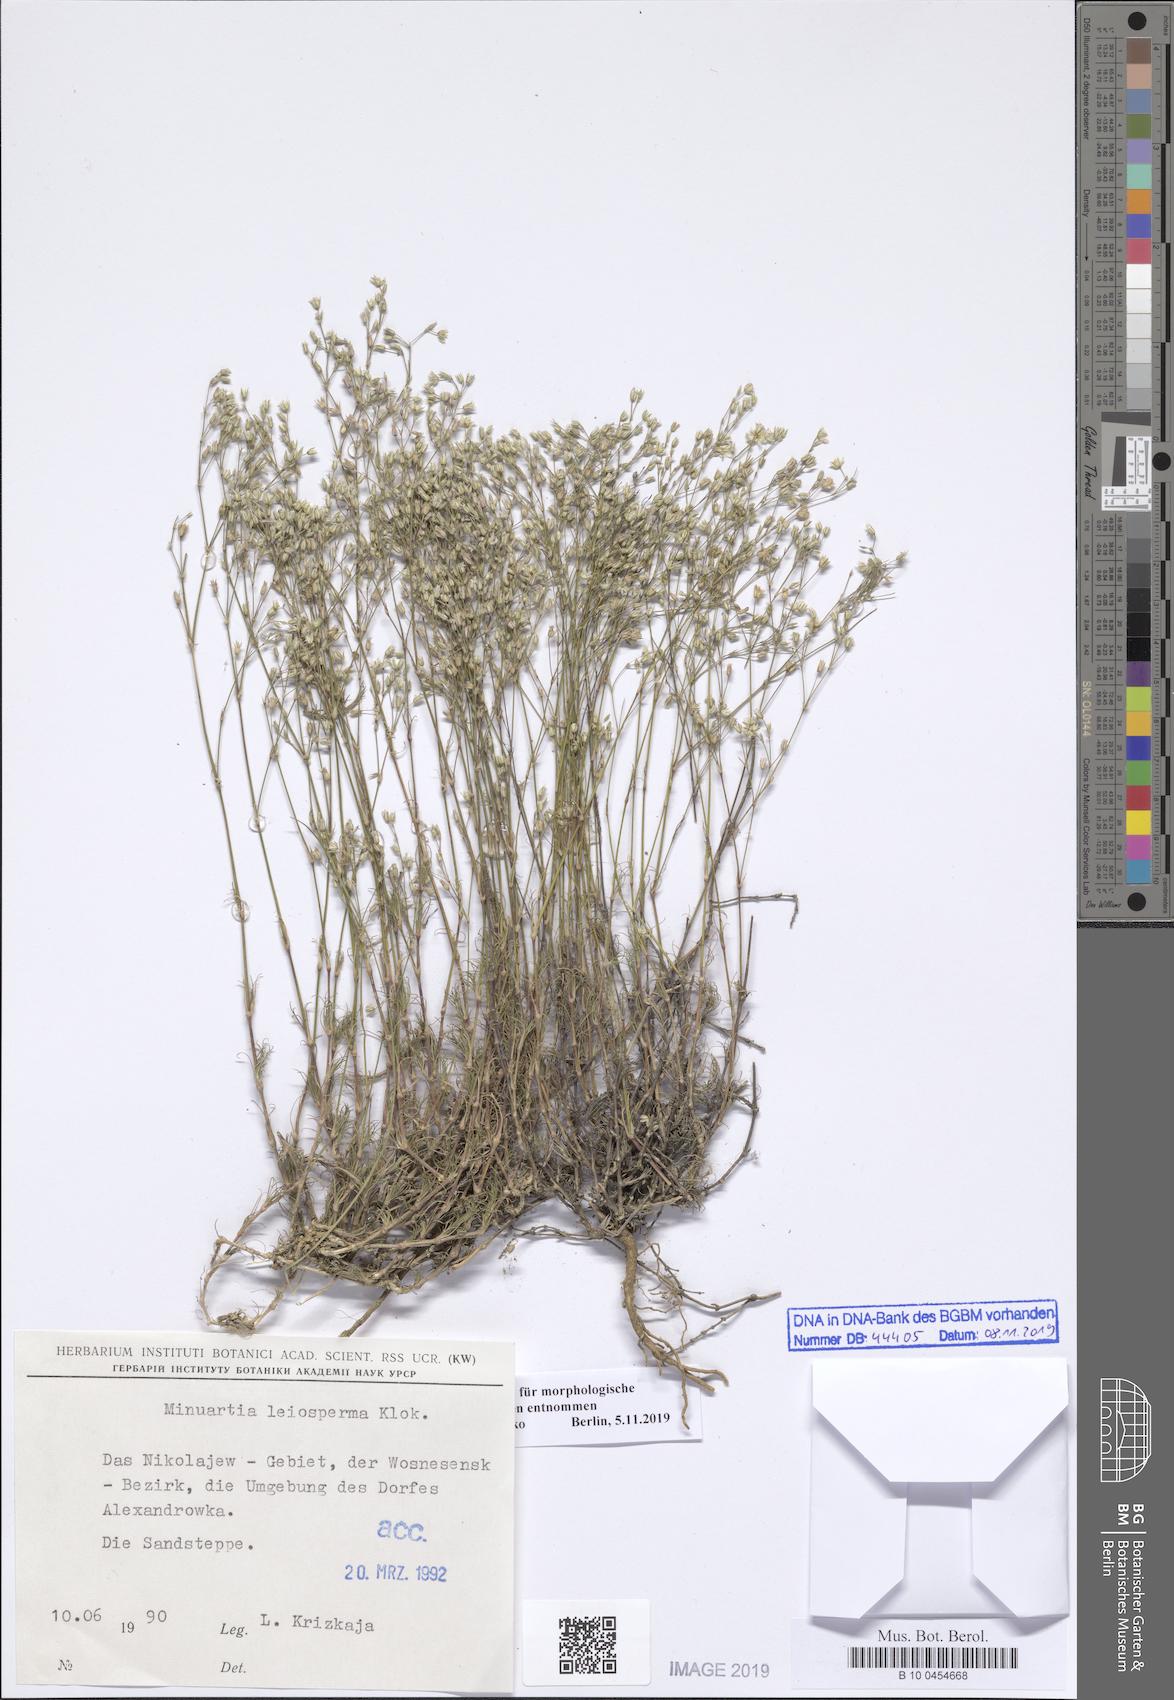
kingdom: Plantae
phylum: Tracheophyta
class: Magnoliopsida
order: Caryophyllales
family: Caryophyllaceae
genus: Minuartia
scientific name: Minuartia setacea
